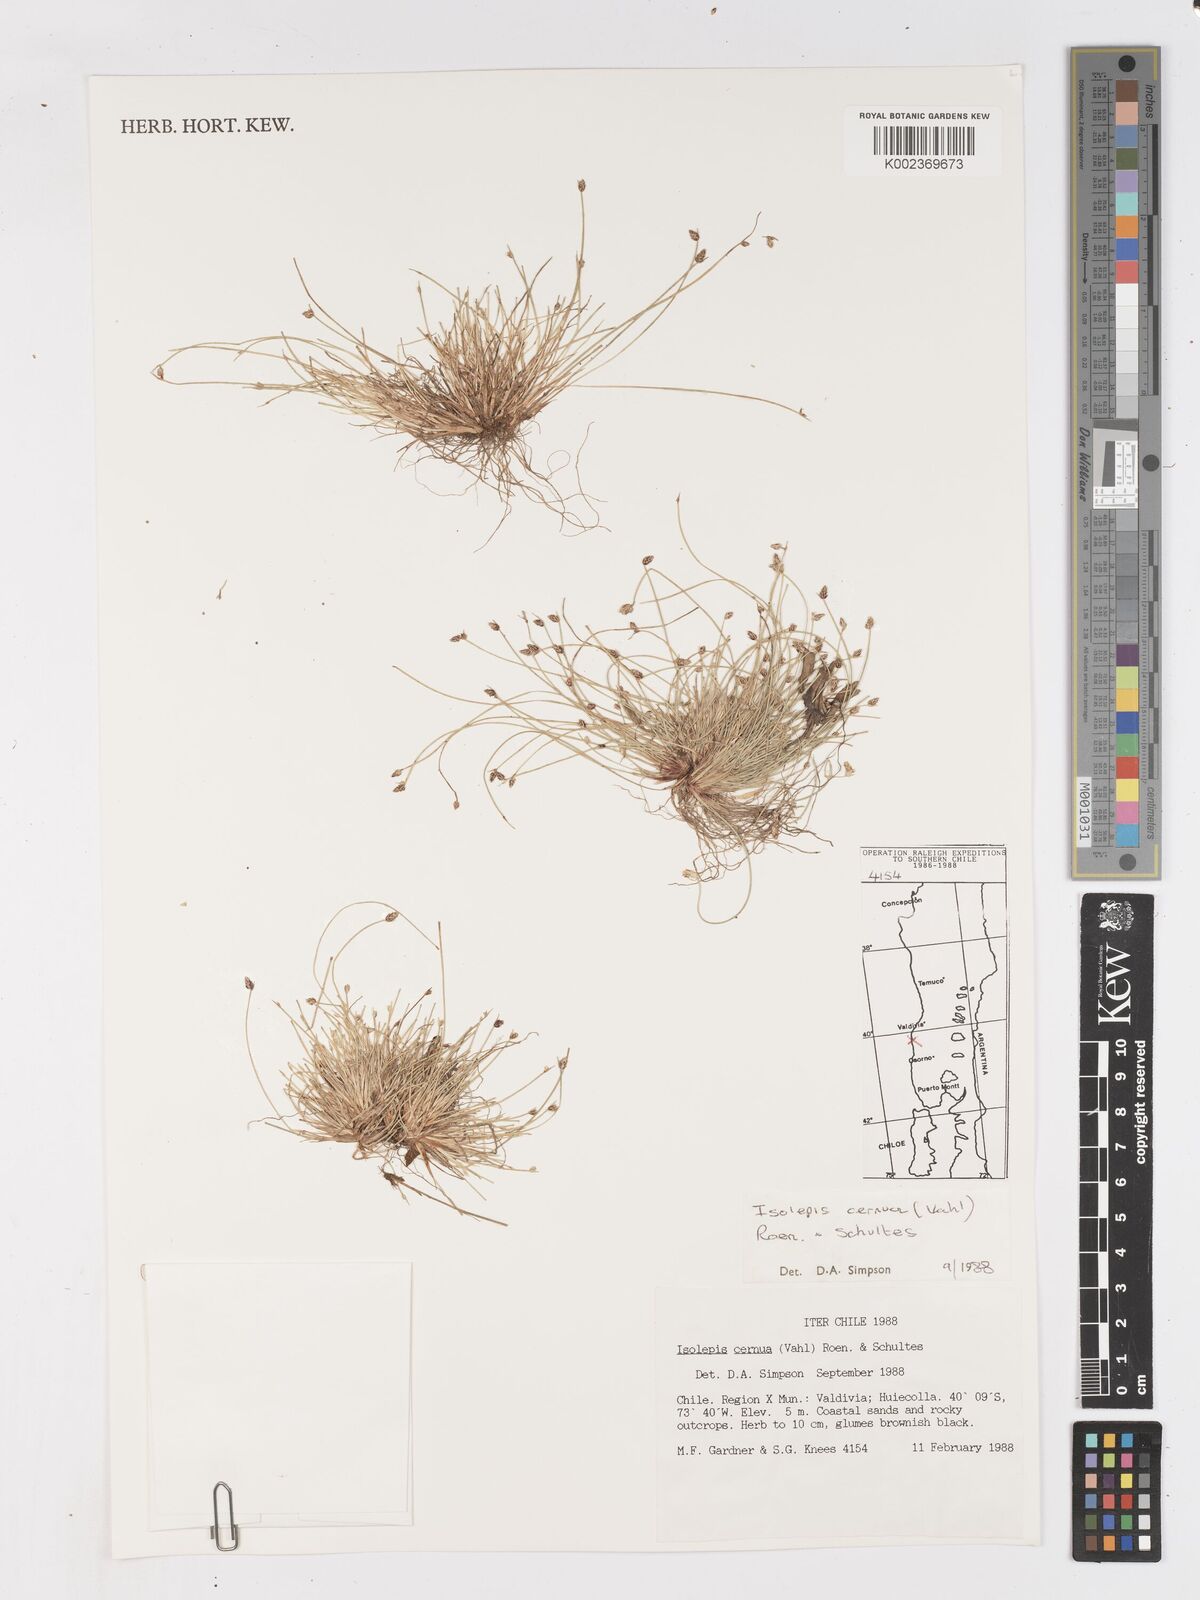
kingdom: Plantae
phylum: Tracheophyta
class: Liliopsida
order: Poales
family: Cyperaceae
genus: Isolepis
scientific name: Isolepis cernua
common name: Slender club-rush
